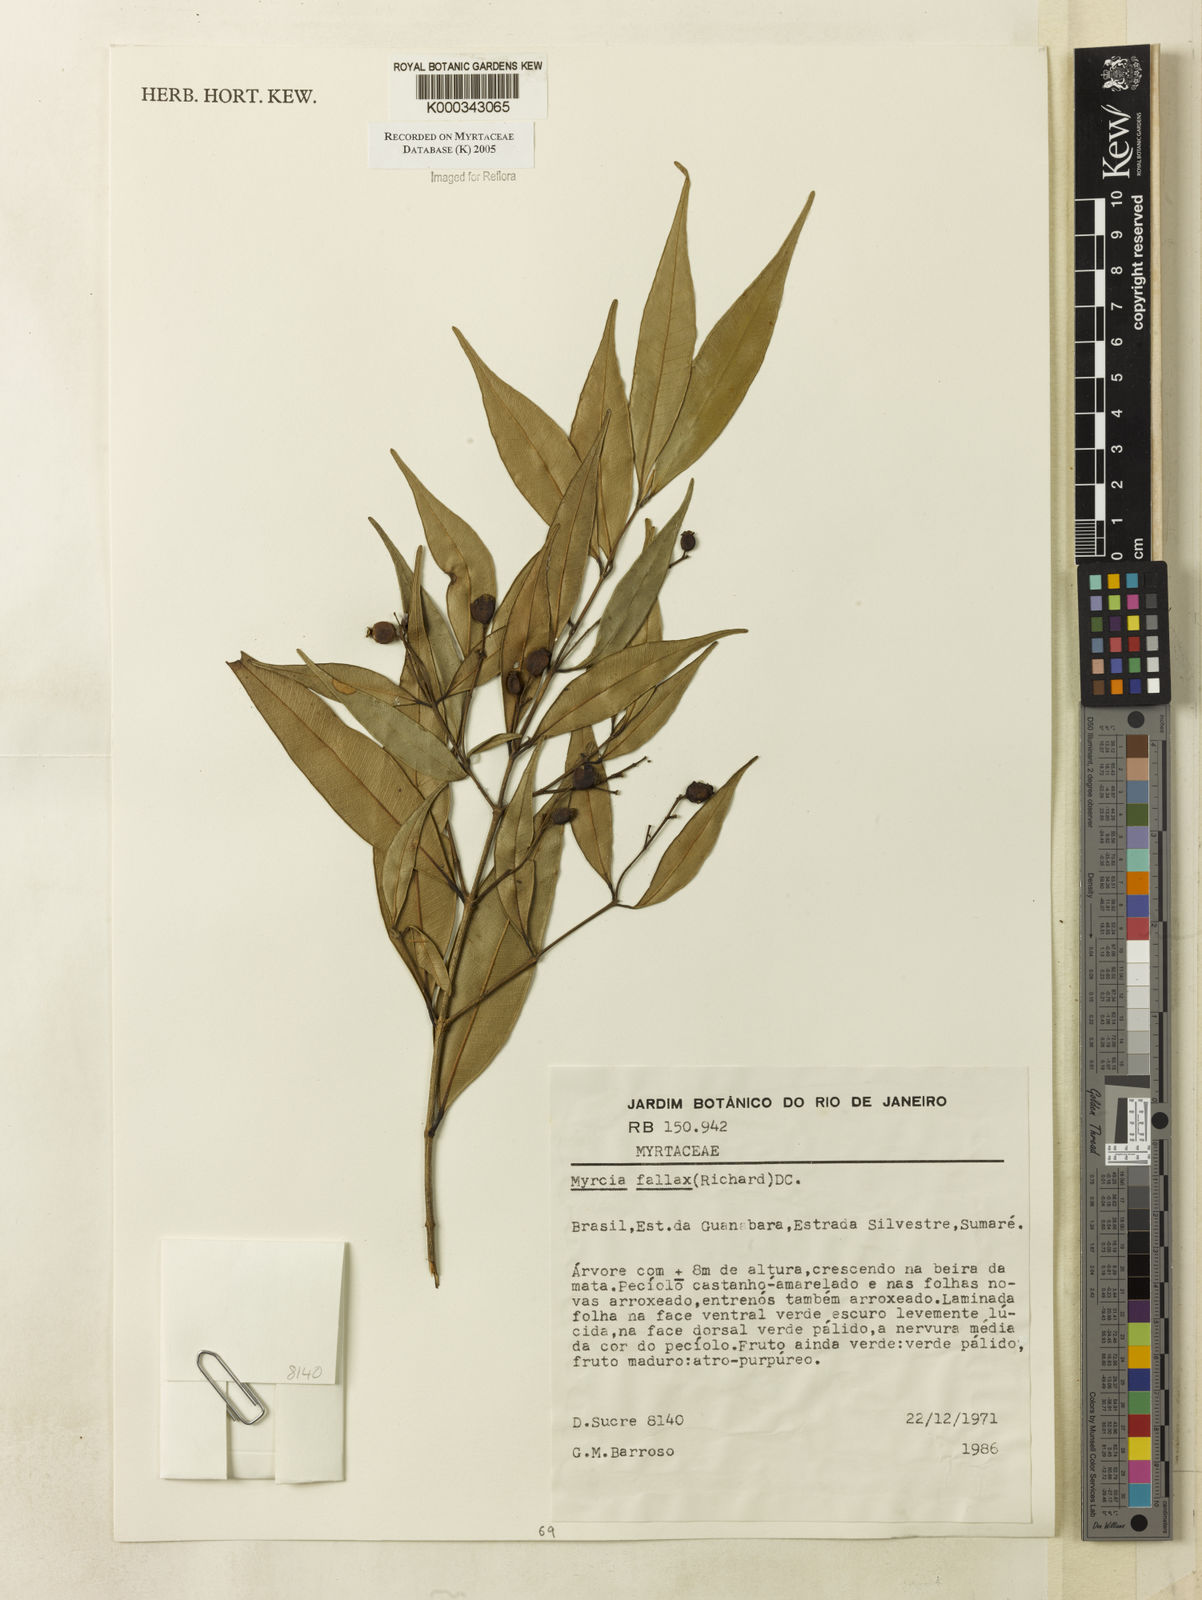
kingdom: Plantae
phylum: Tracheophyta
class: Magnoliopsida
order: Myrtales
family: Myrtaceae
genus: Myrcia
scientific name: Myrcia splendens
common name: Surinam cherry
